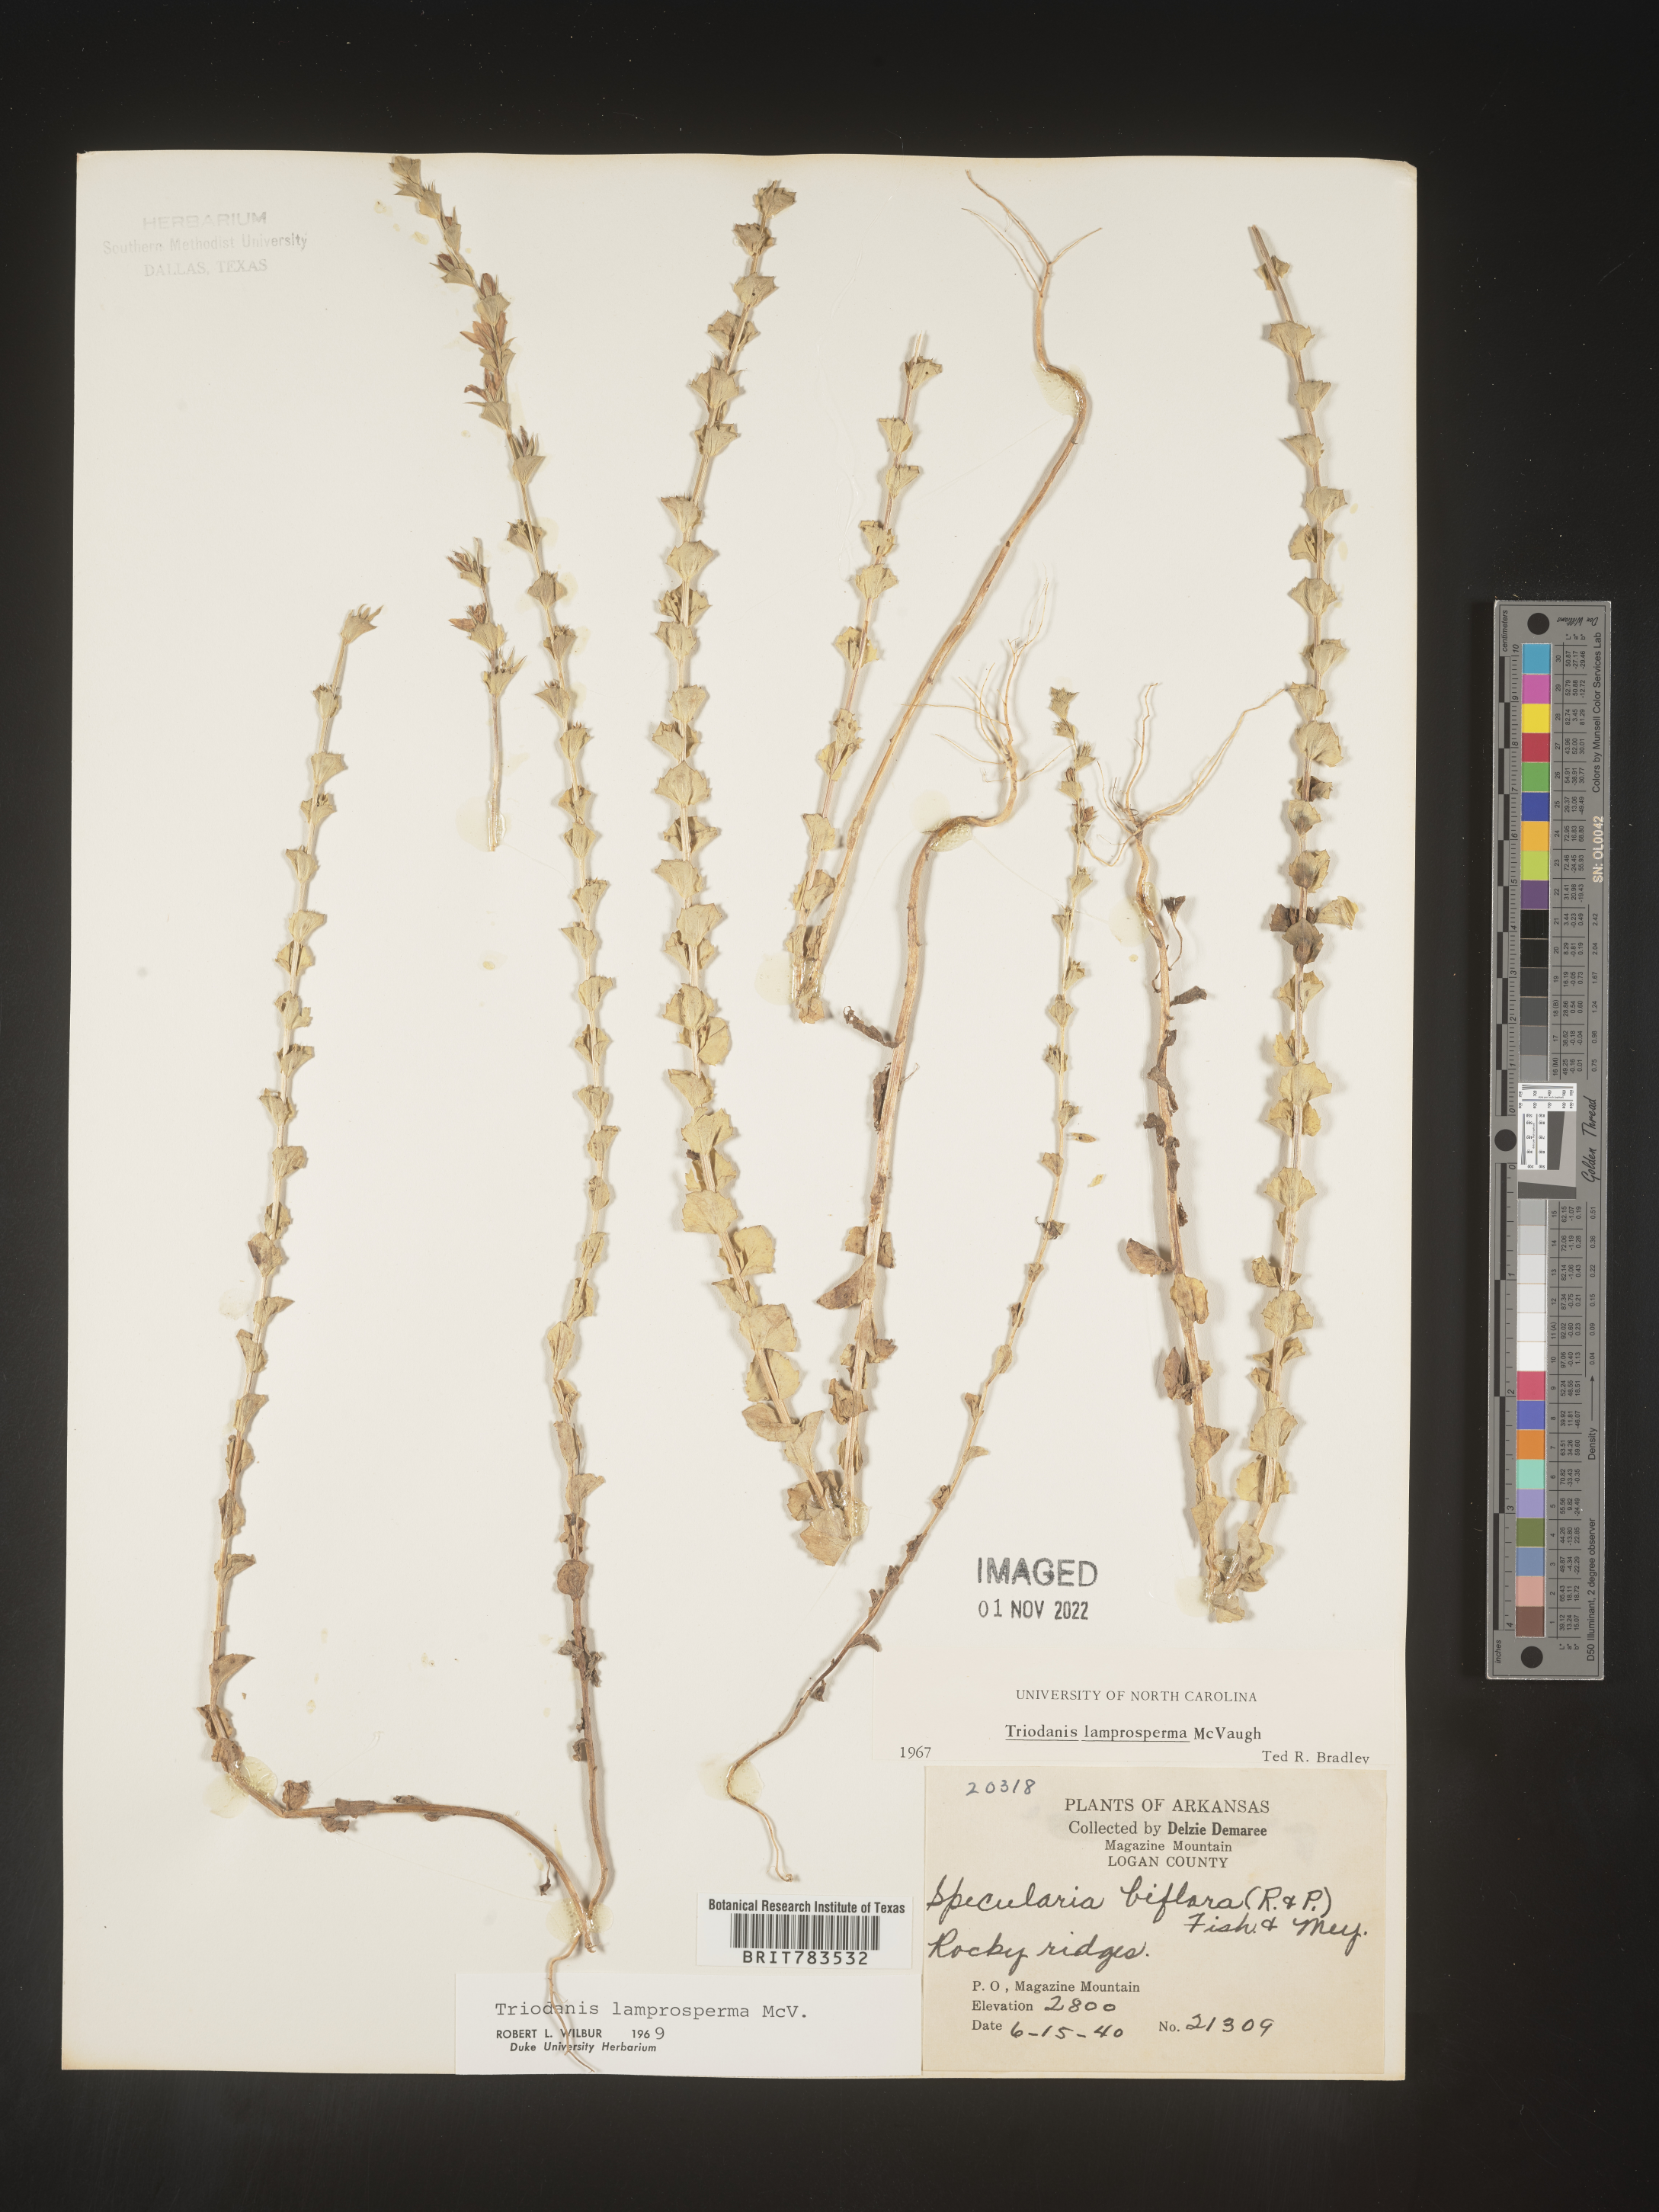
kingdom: Plantae
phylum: Tracheophyta
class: Magnoliopsida
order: Asterales
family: Campanulaceae
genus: Triodanis
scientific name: Triodanis lamprosperma
